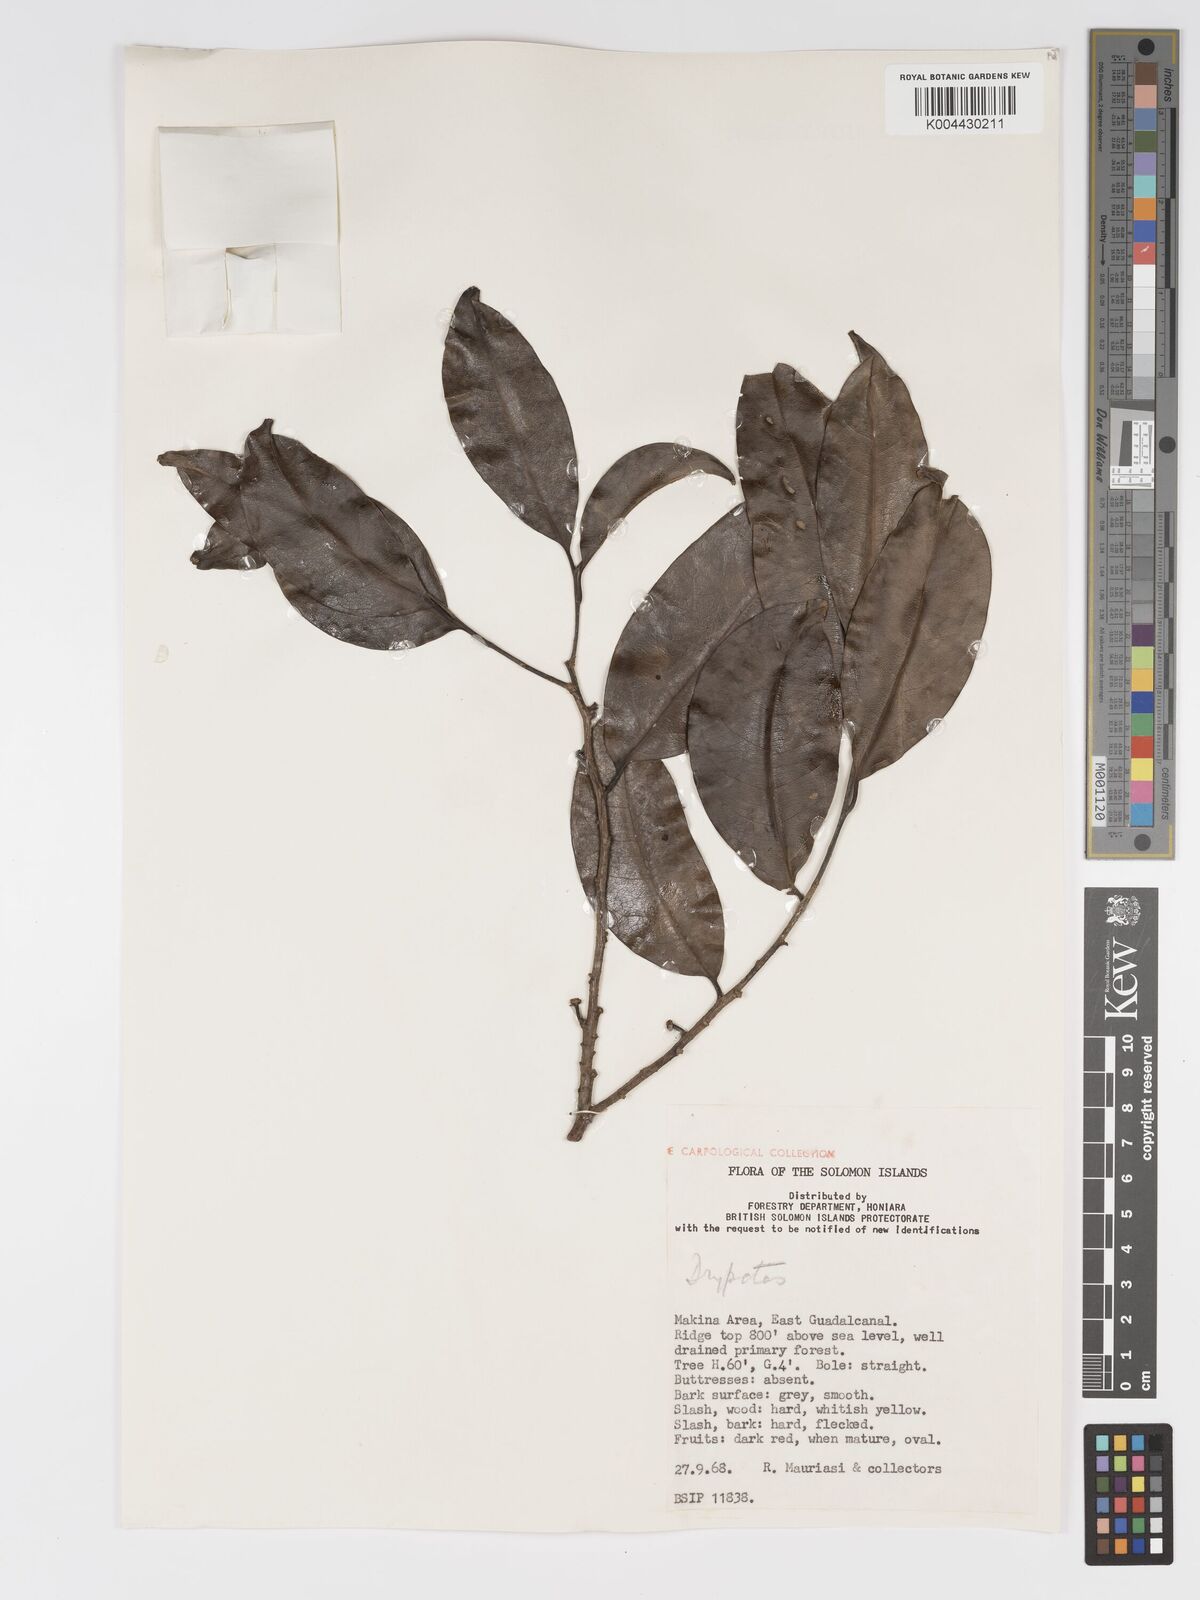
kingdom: Plantae
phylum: Tracheophyta
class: Magnoliopsida
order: Malpighiales
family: Putranjivaceae
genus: Drypetes
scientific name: Drypetes lasiogynoides
